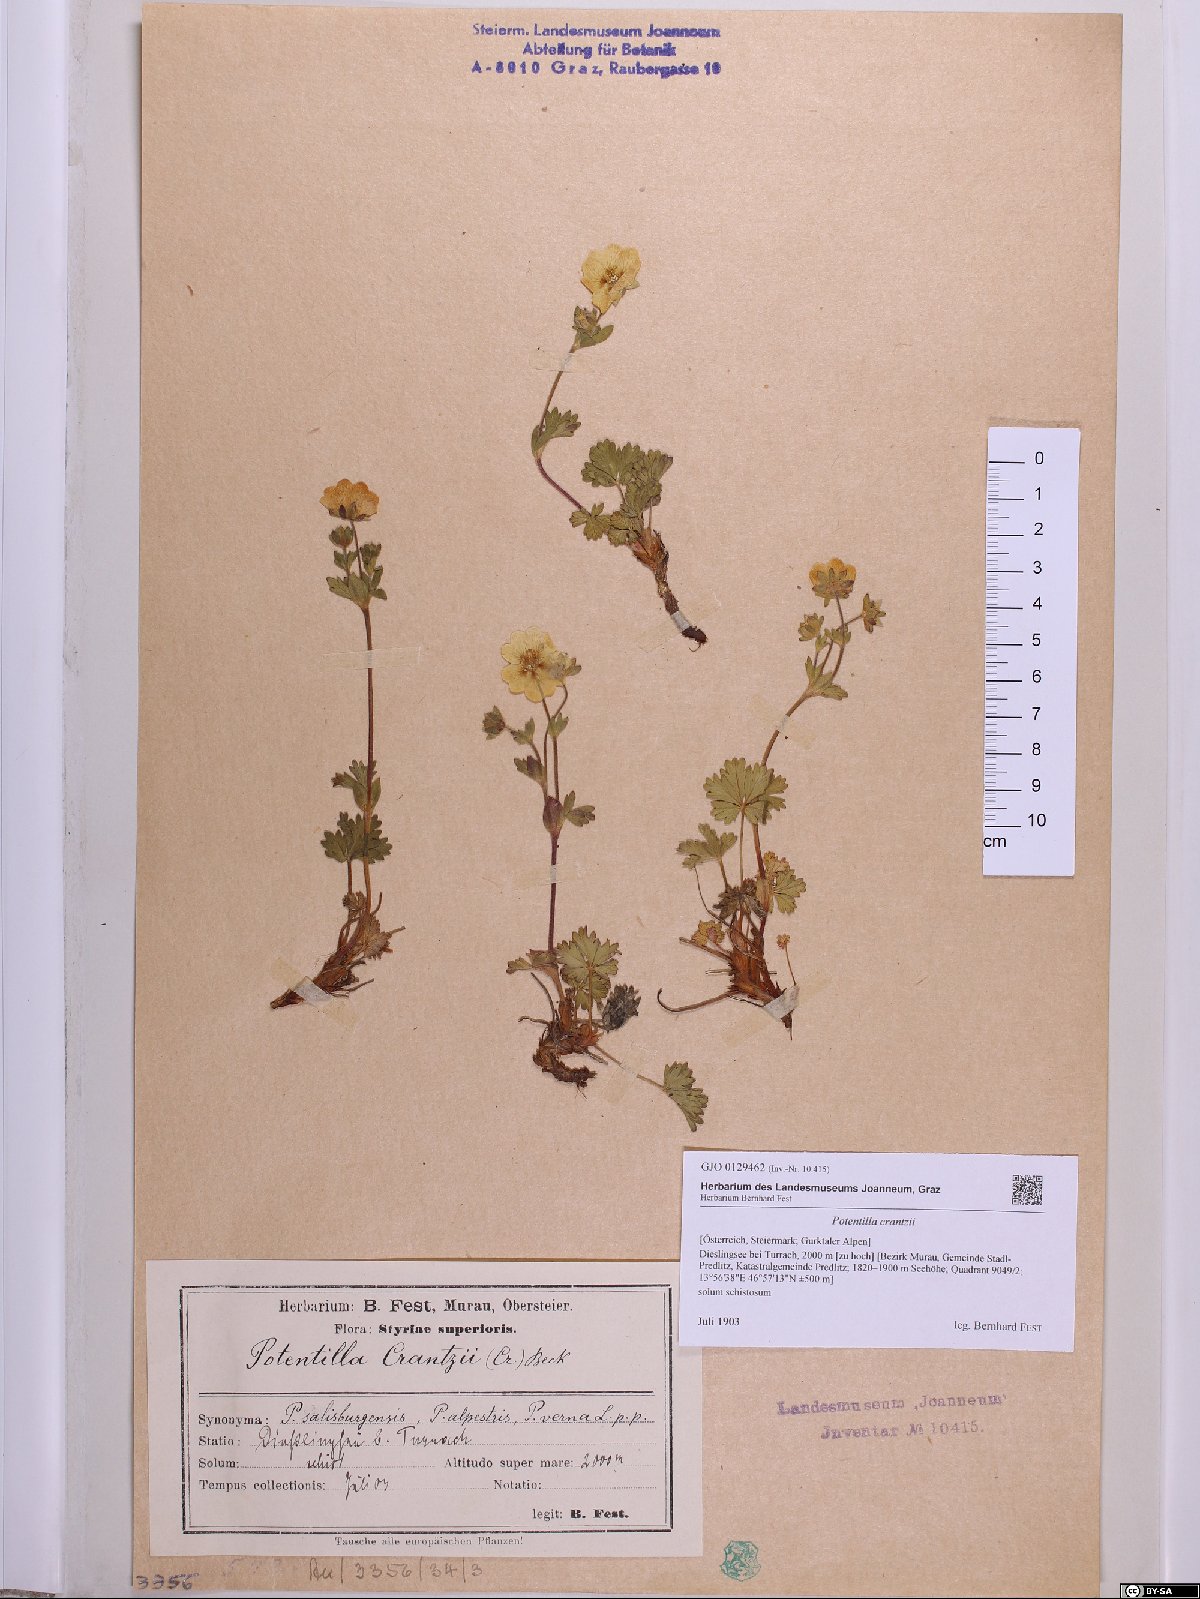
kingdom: Plantae
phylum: Tracheophyta
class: Magnoliopsida
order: Rosales
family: Rosaceae
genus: Potentilla
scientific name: Potentilla crantzii
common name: Alpine cinquefoil
